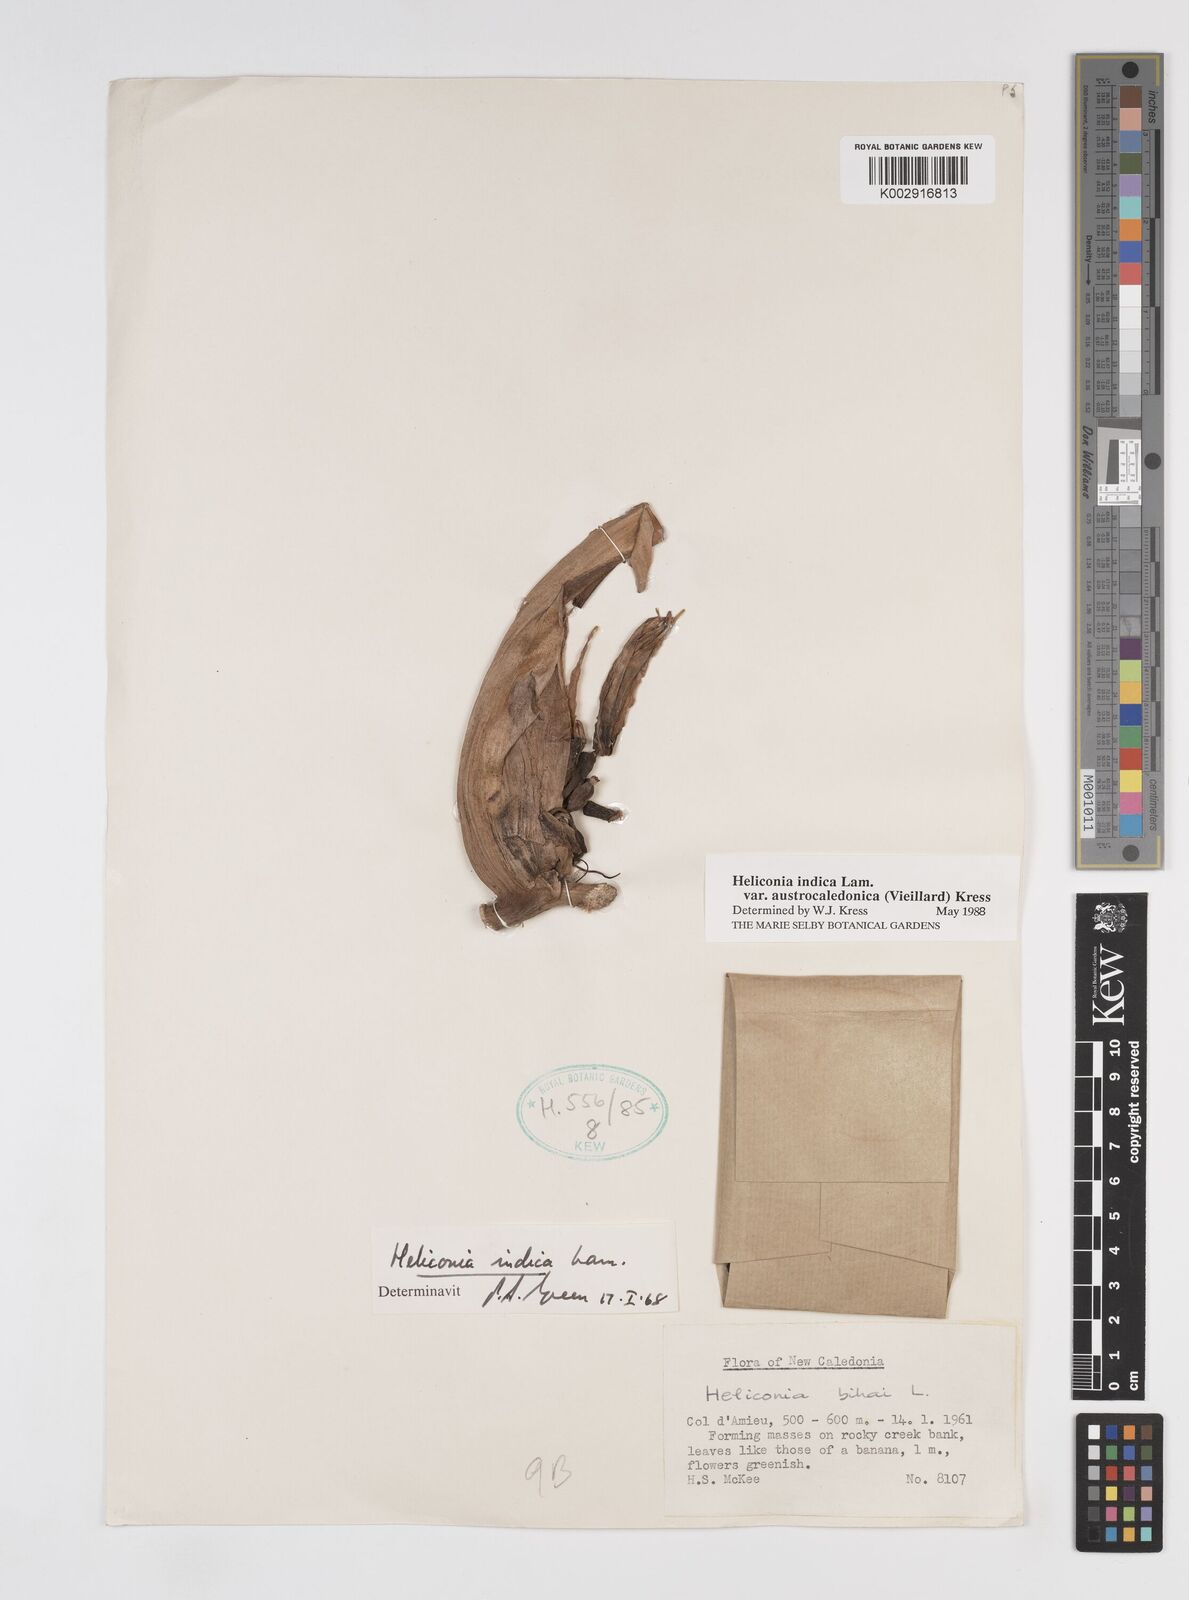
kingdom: Plantae
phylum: Tracheophyta
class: Liliopsida
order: Zingiberales
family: Heliconiaceae
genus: Heliconia
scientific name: Heliconia indica
